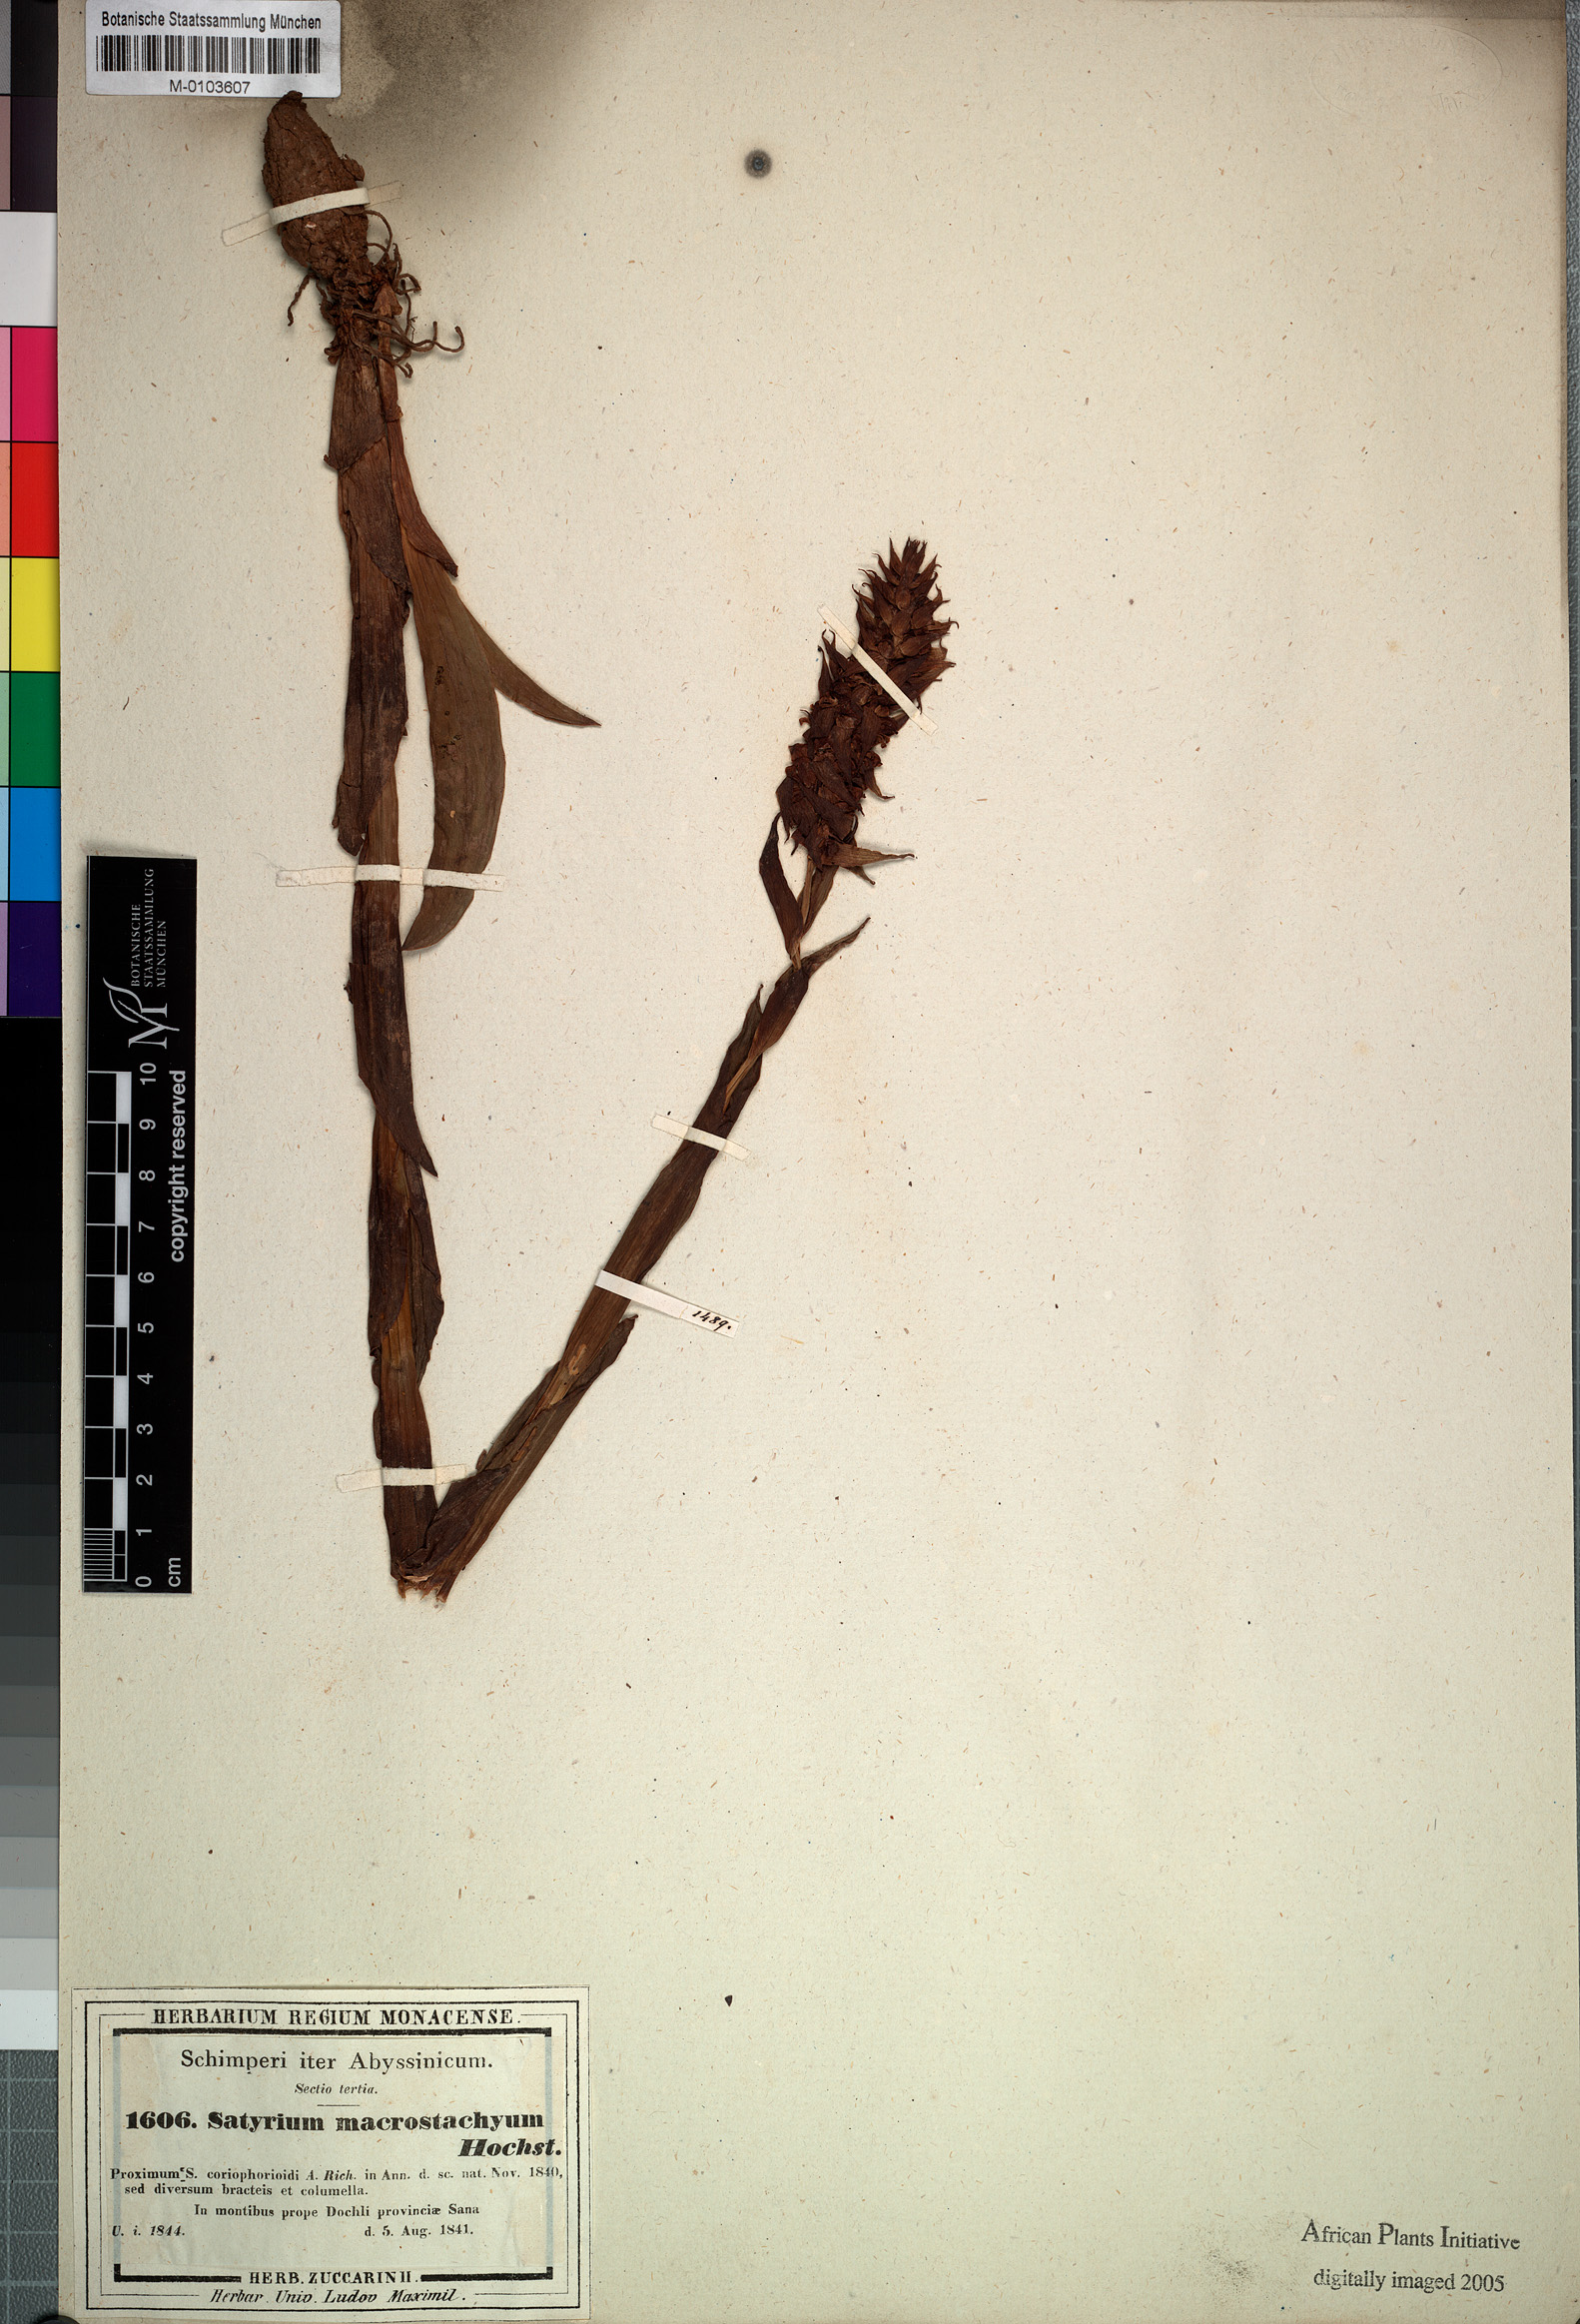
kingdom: Plantae
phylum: Tracheophyta
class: Liliopsida
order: Asparagales
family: Orchidaceae
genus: Satyrium
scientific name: Satyrium brachypetalum
